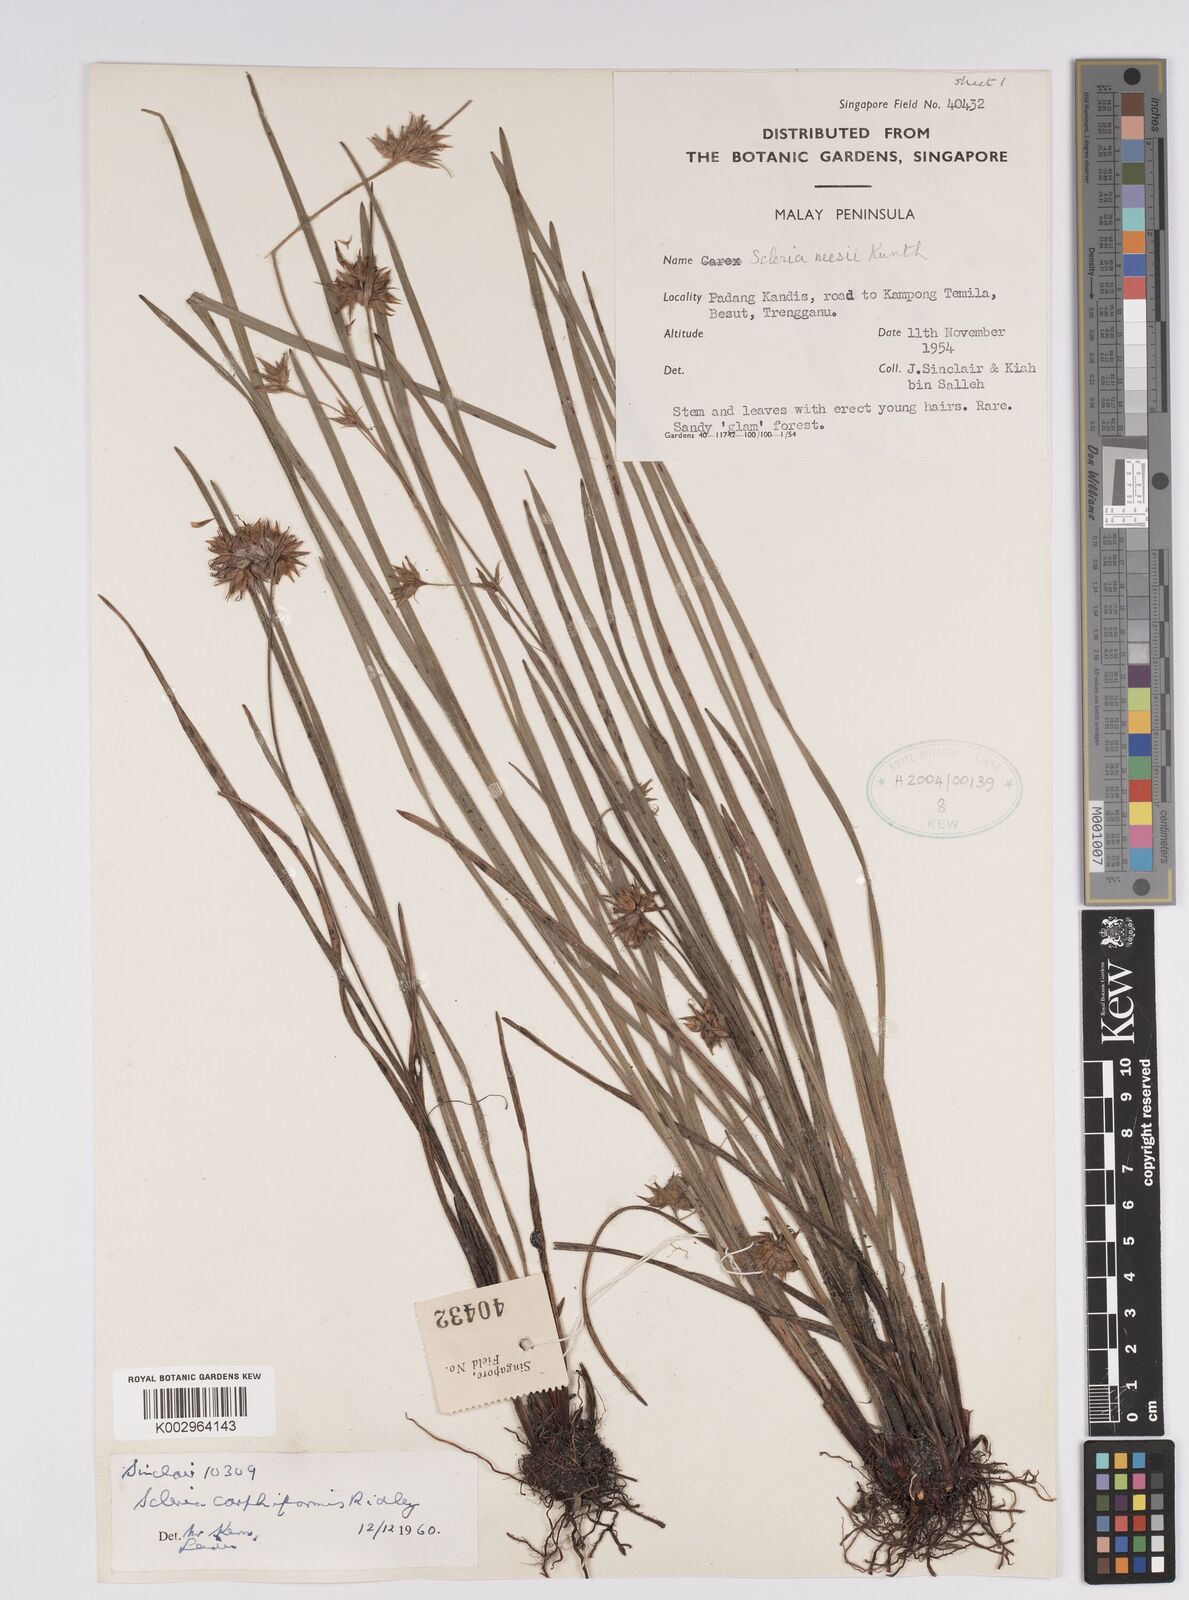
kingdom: Plantae
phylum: Tracheophyta
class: Liliopsida
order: Poales
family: Cyperaceae
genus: Scleria
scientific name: Scleria carphiformis
